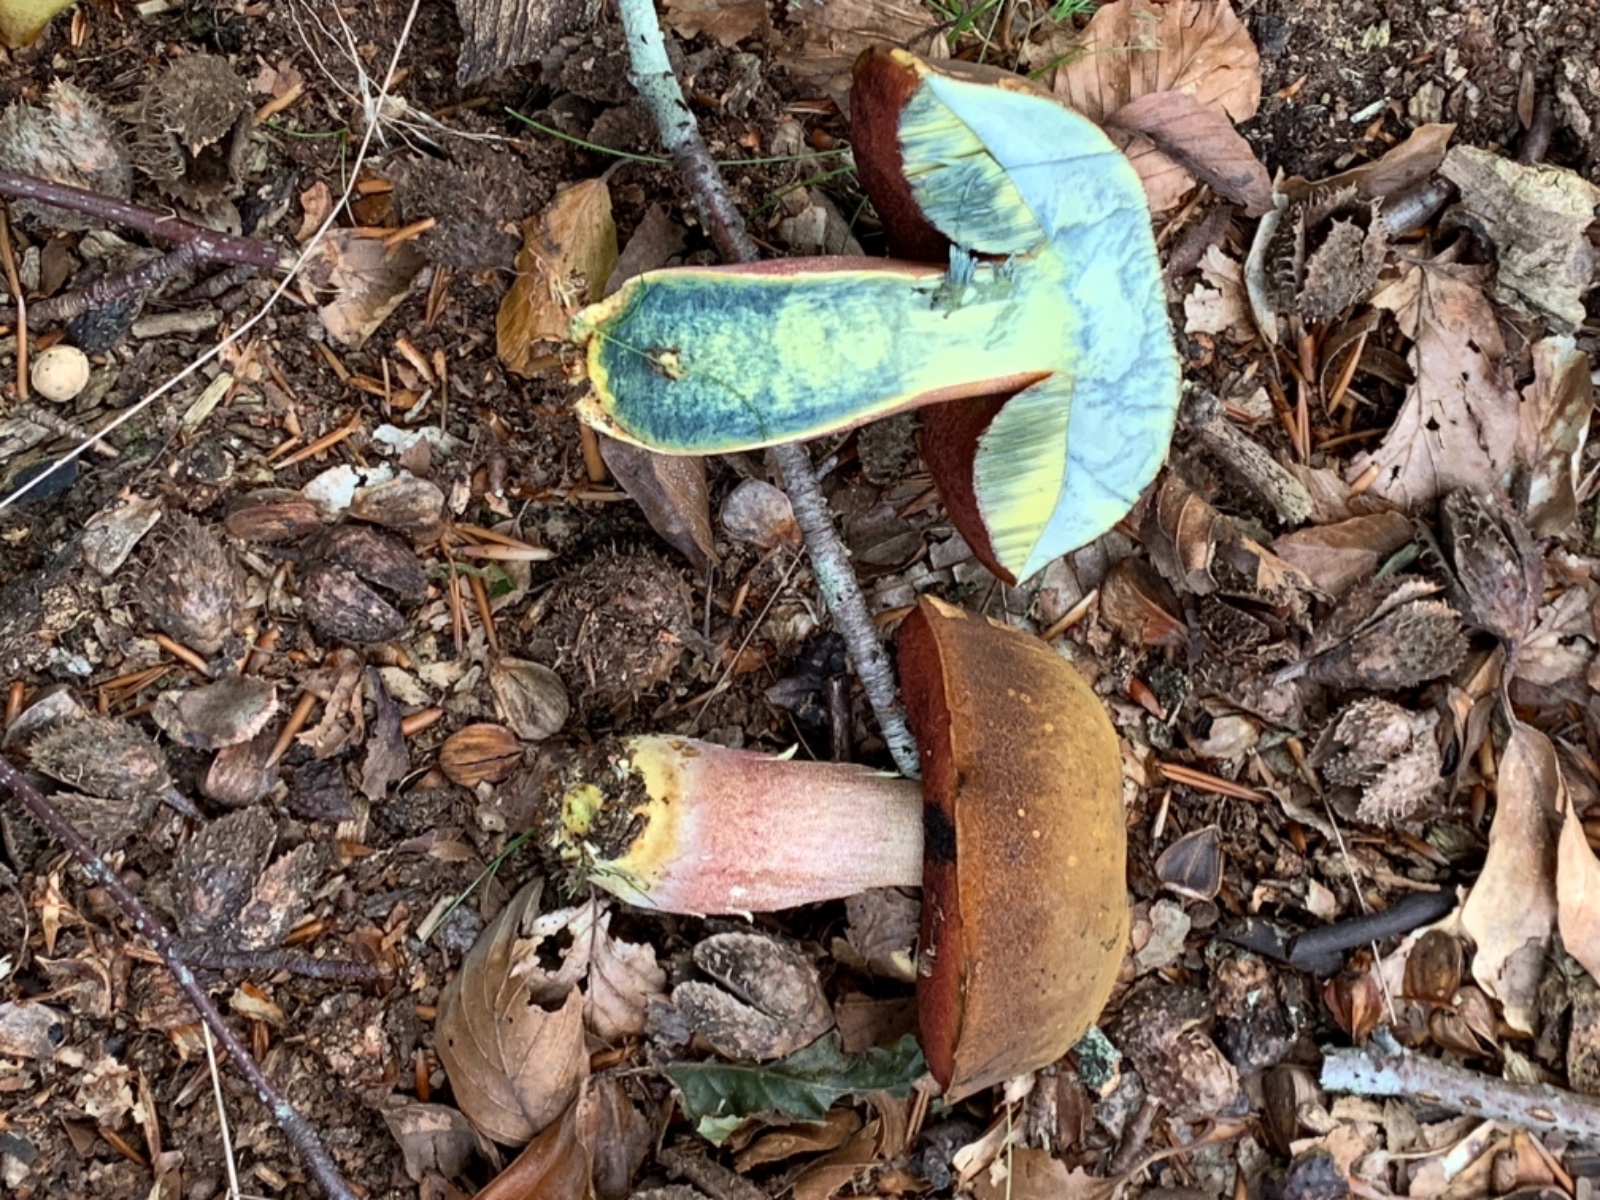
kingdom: Fungi
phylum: Basidiomycota
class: Agaricomycetes
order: Boletales
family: Boletaceae
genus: Neoboletus
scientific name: Neoboletus erythropus
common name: punktstokket indigorørhat
